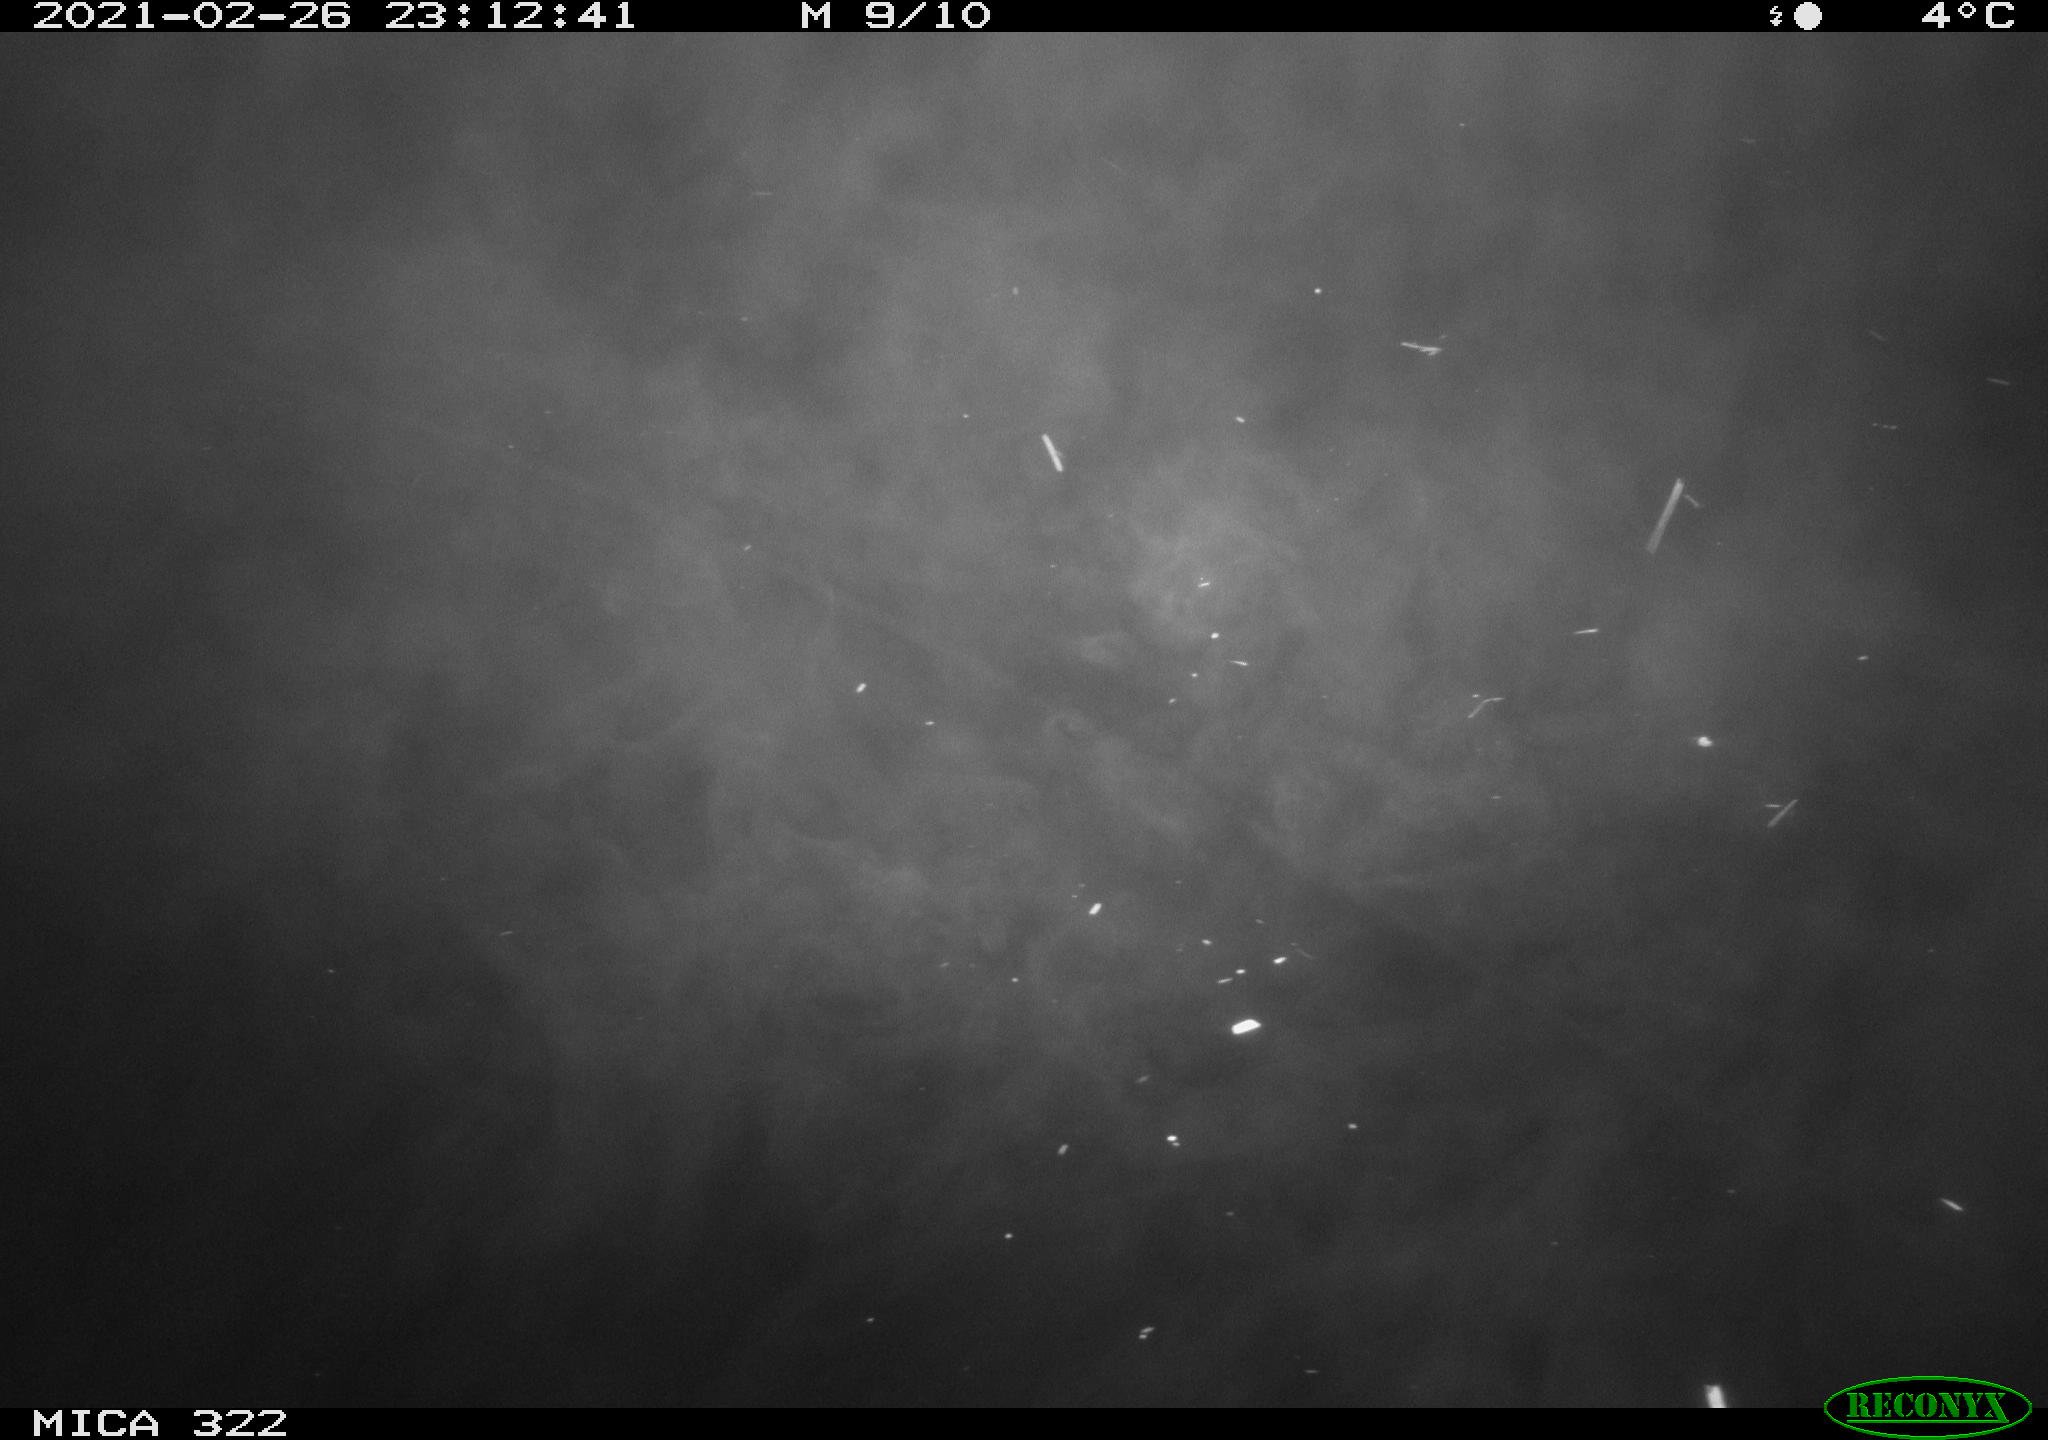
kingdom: Animalia
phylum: Chordata
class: Aves
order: Gruiformes
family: Rallidae
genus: Fulica
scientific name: Fulica atra
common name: Eurasian coot
